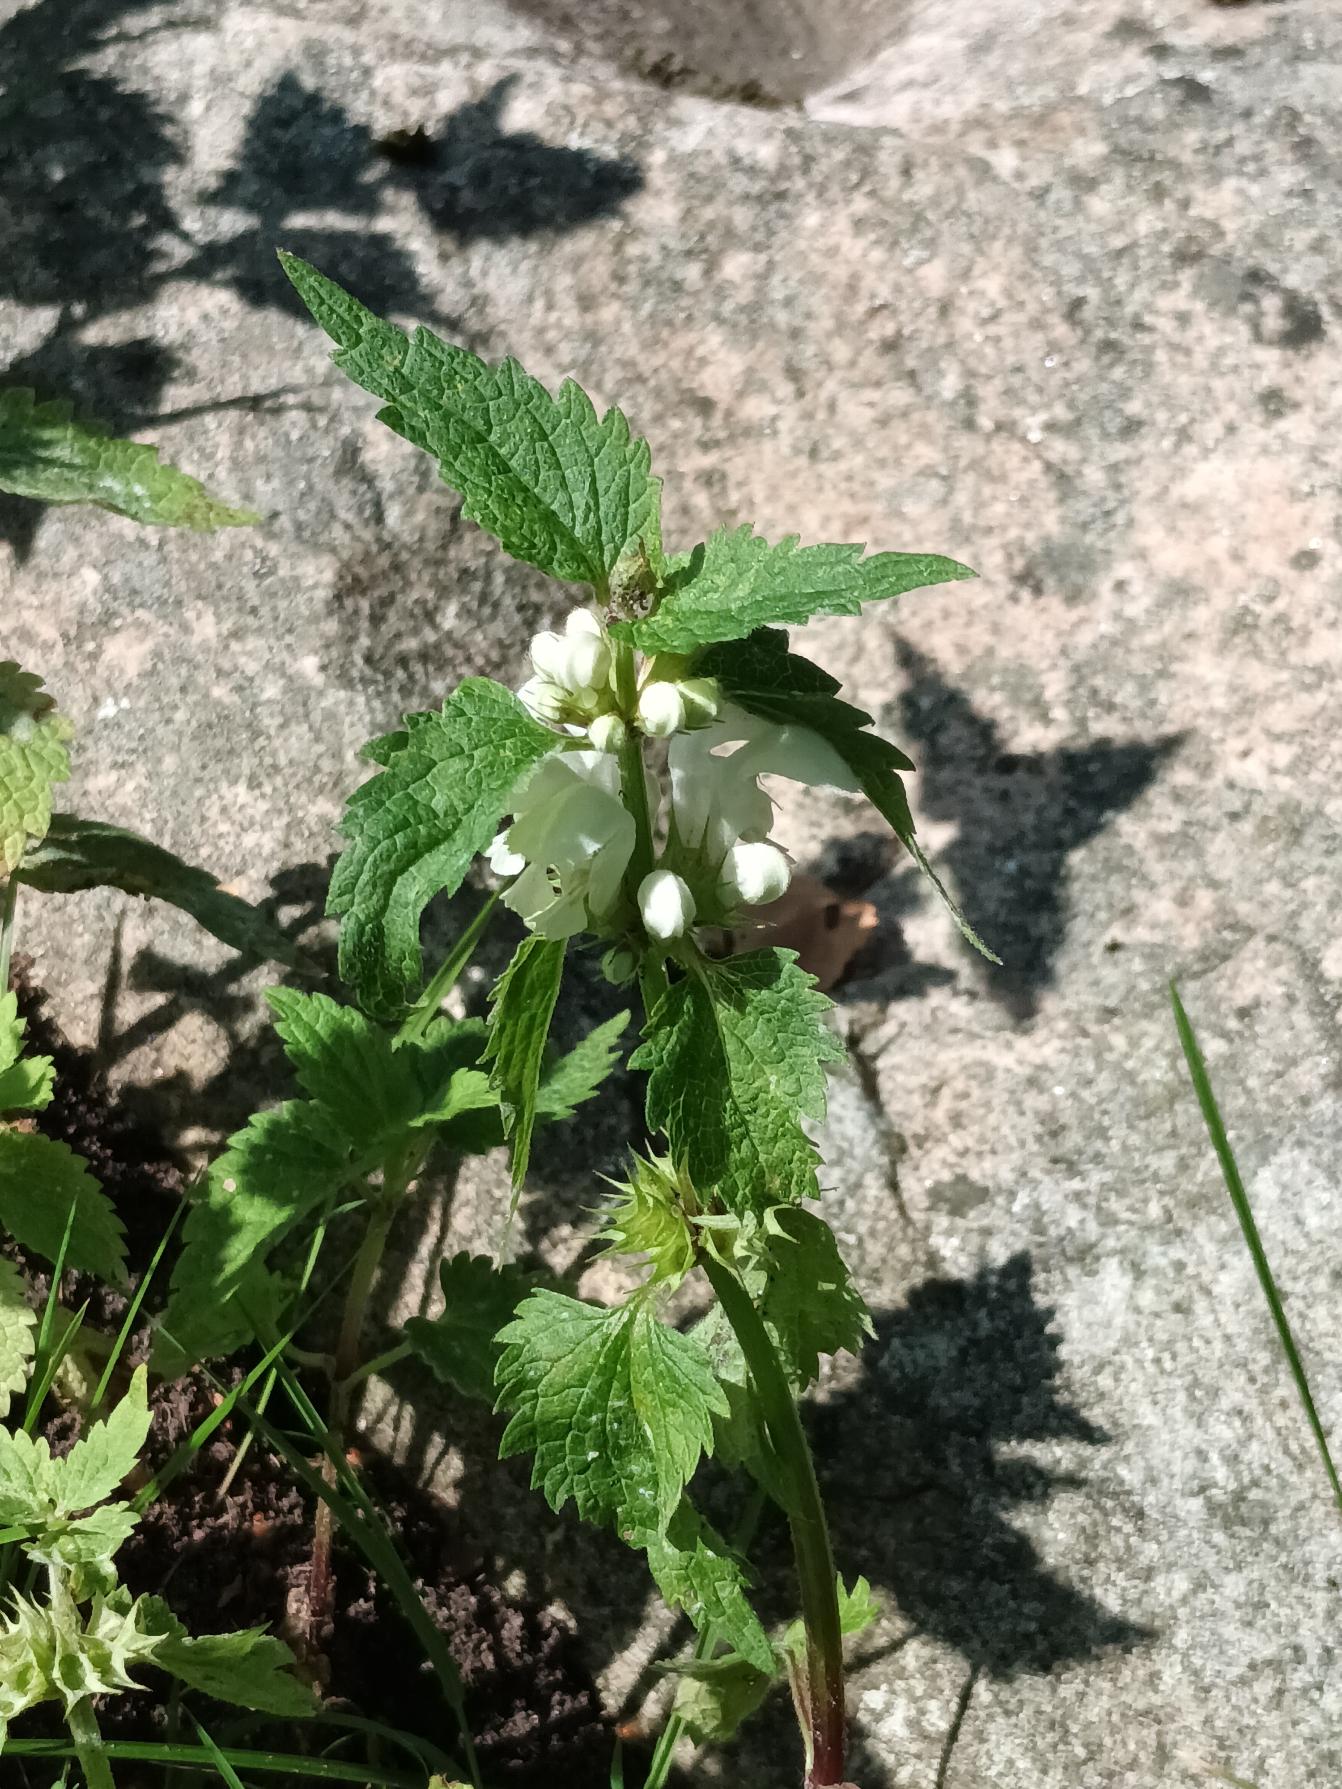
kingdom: Plantae
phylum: Tracheophyta
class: Magnoliopsida
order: Lamiales
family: Lamiaceae
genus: Lamium
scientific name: Lamium album
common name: Døvnælde
